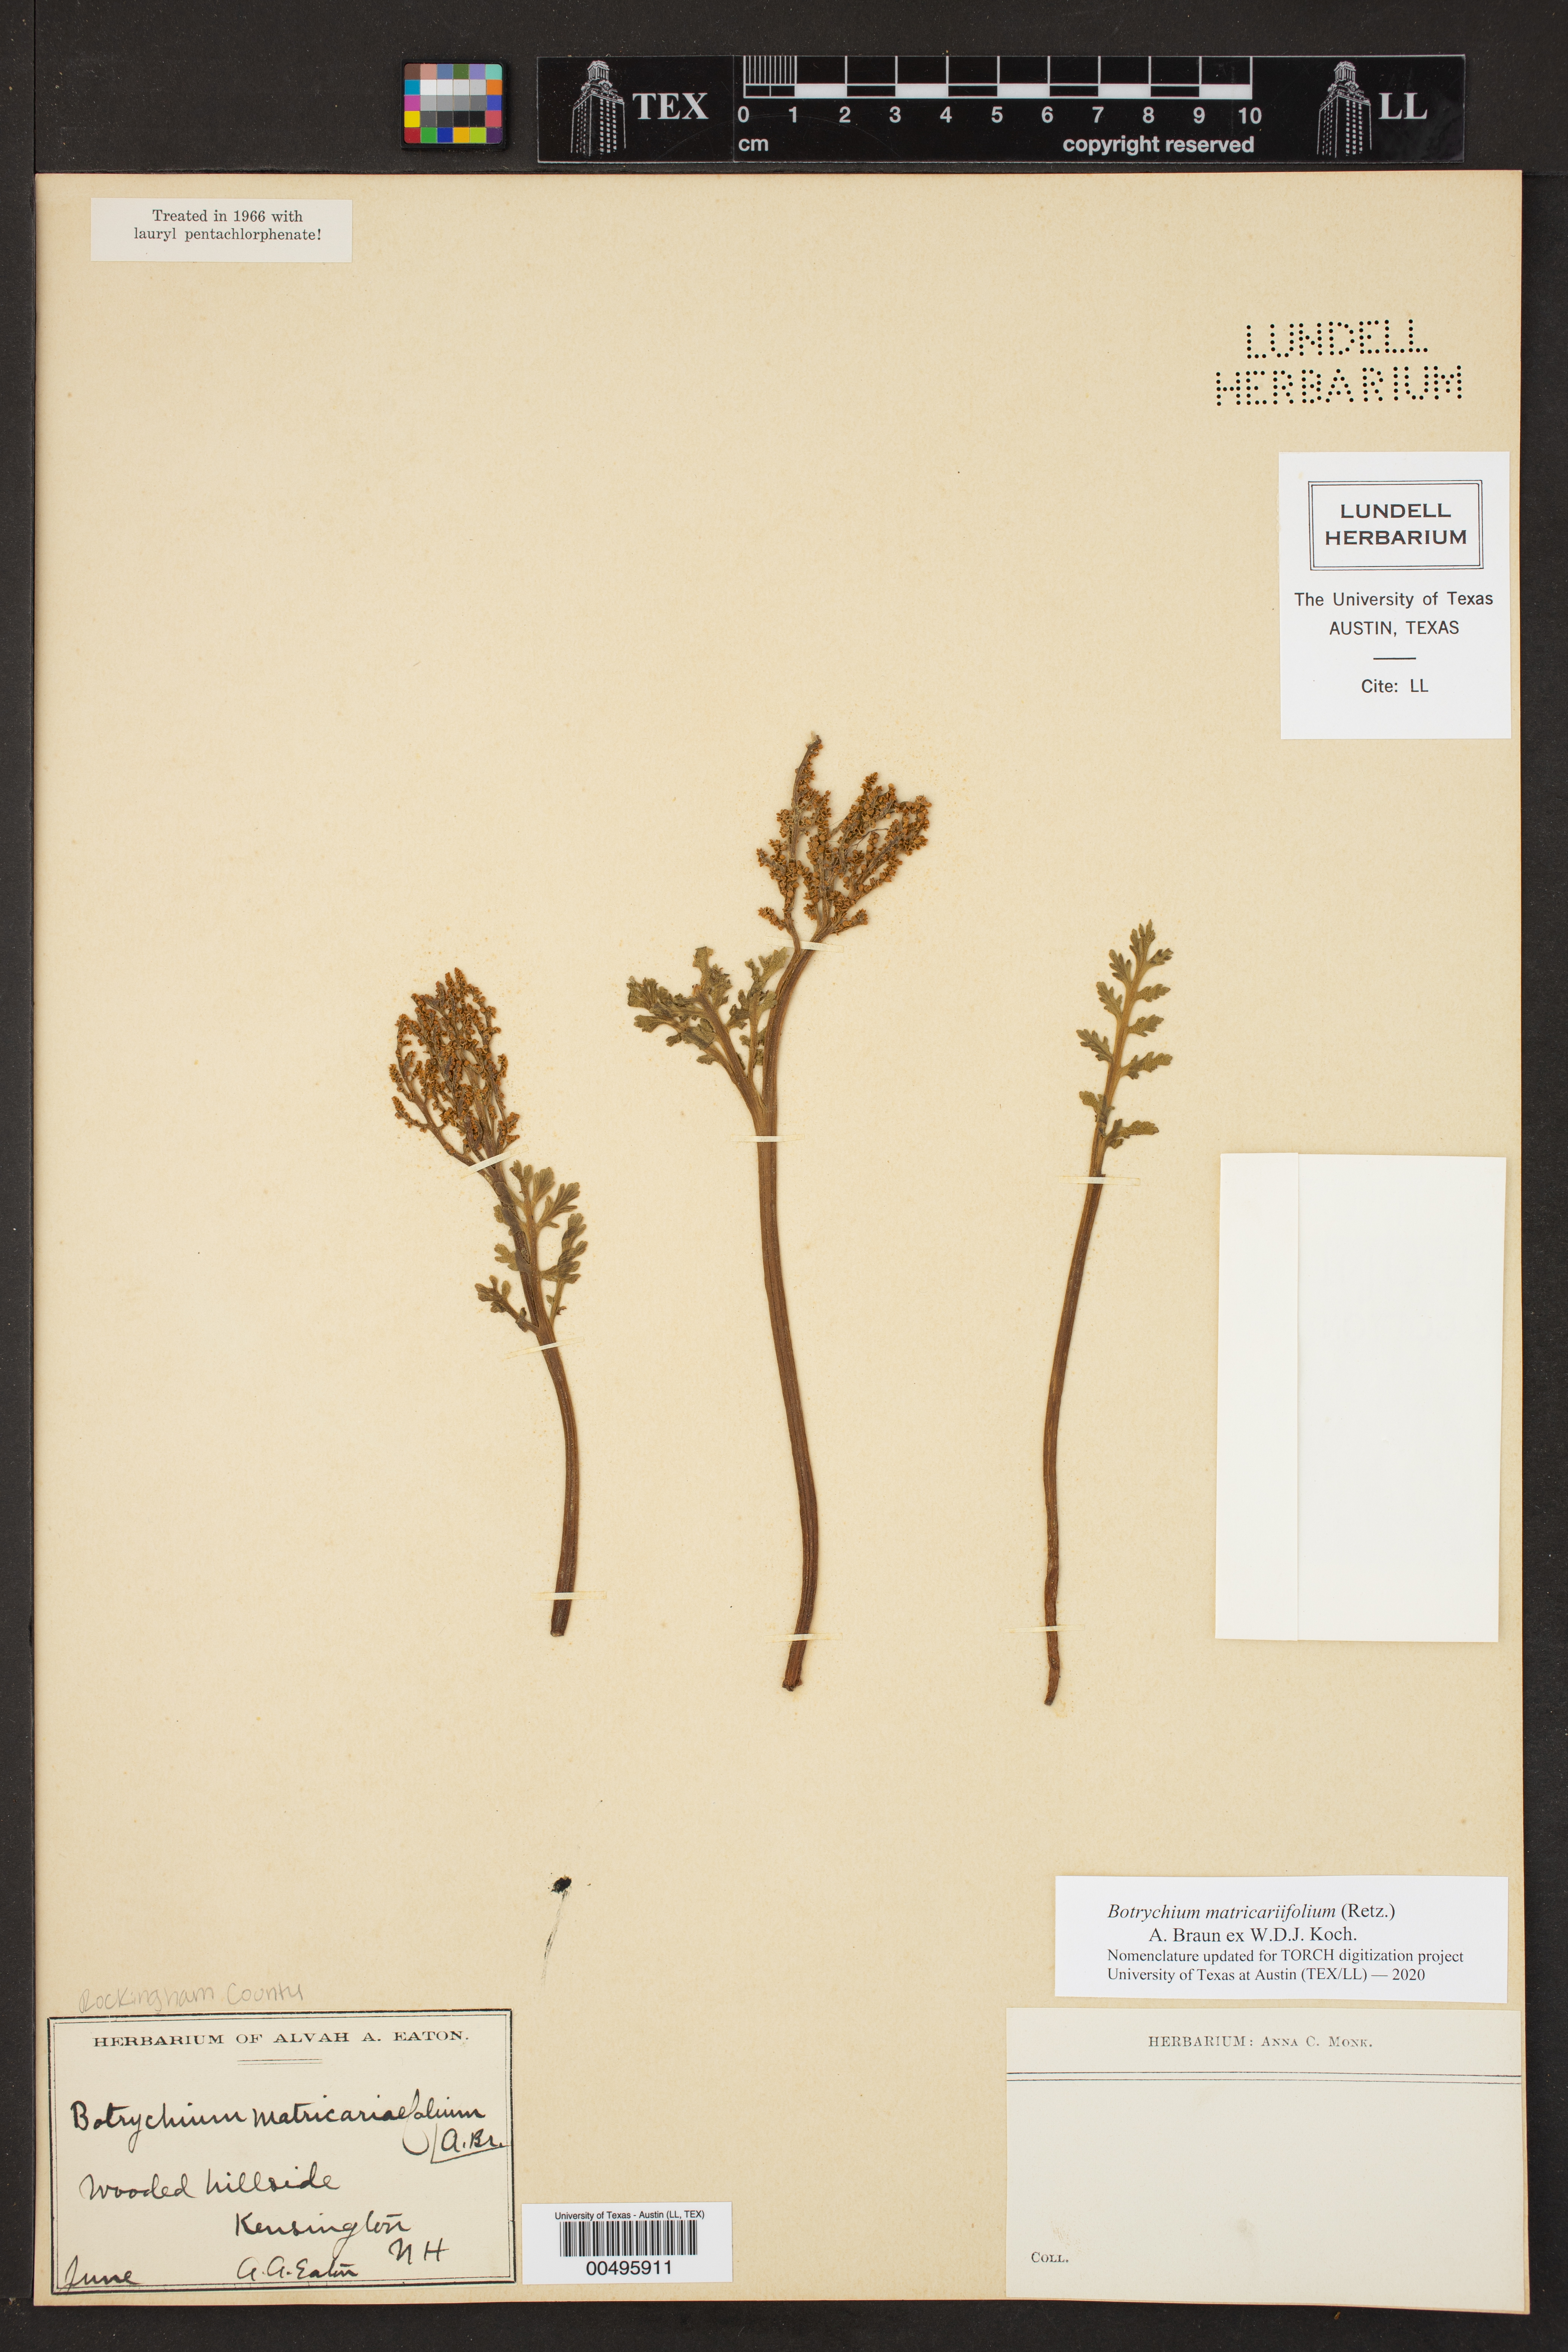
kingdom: Plantae
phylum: Tracheophyta
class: Polypodiopsida
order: Ophioglossales
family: Ophioglossaceae
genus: Botrychium
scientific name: Botrychium matricariifolium
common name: Branched moonwort
